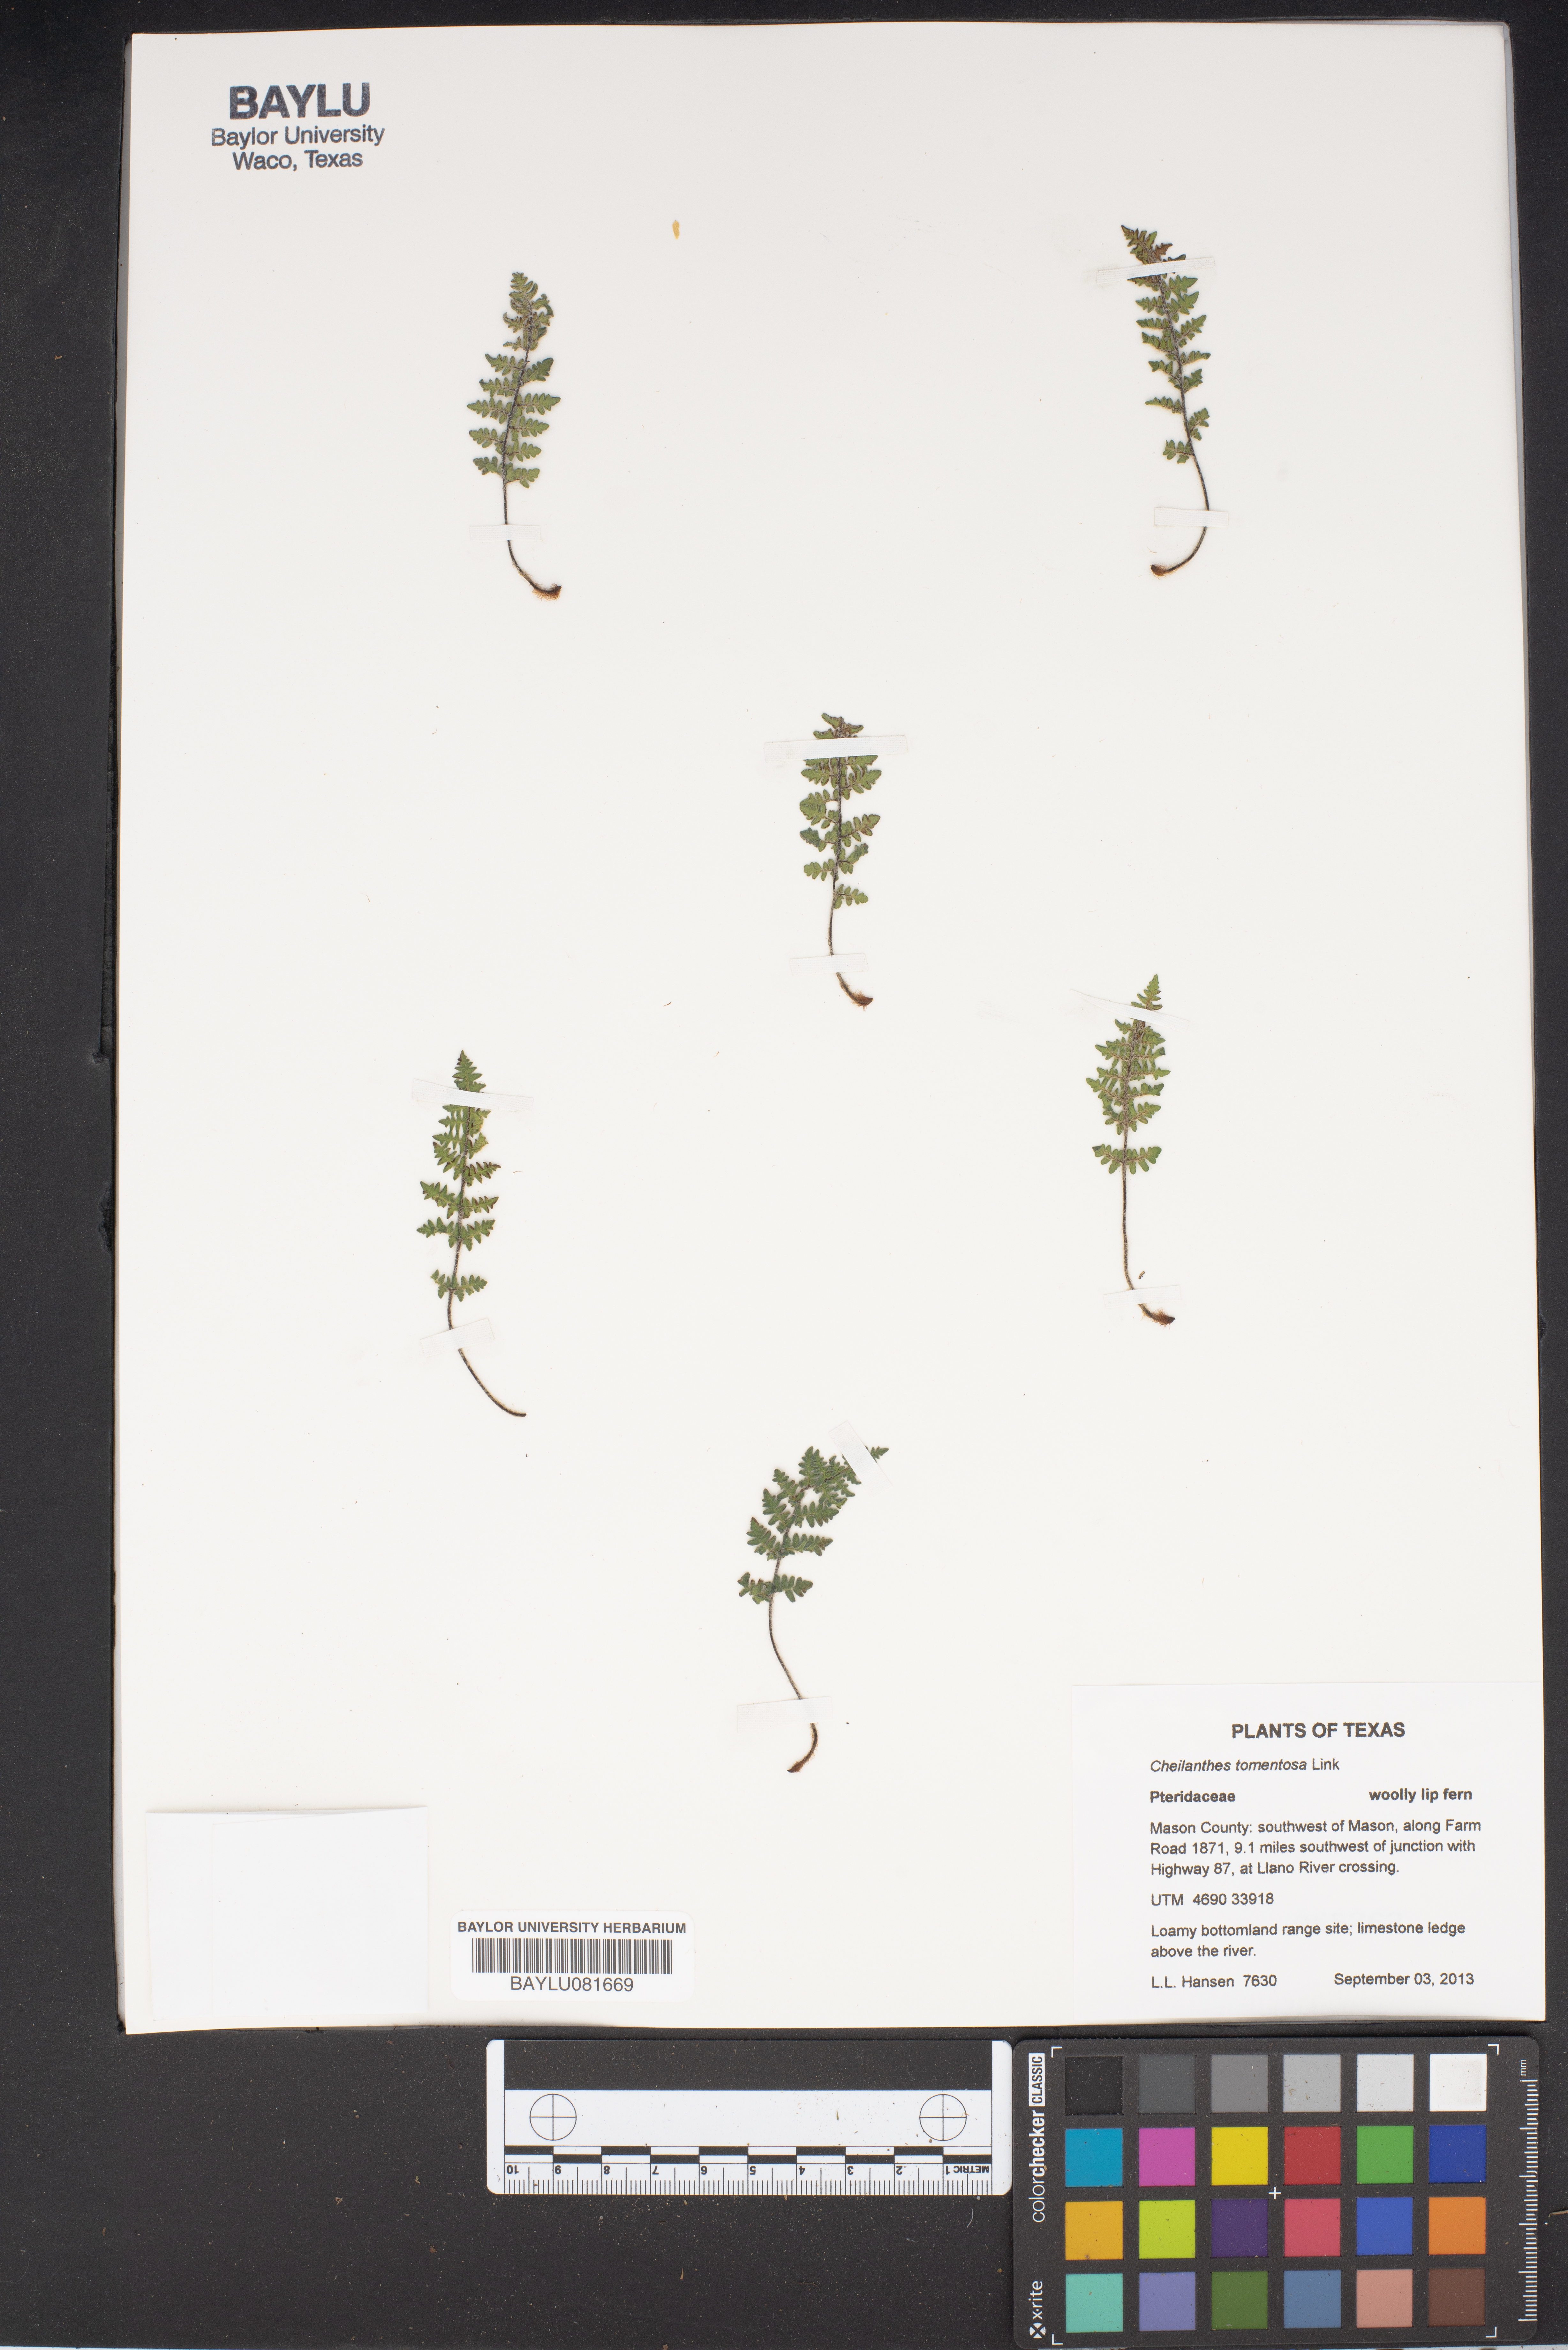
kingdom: Plantae
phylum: Tracheophyta
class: Polypodiopsida
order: Polypodiales
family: Pteridaceae
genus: Myriopteris
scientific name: Myriopteris tomentosa
